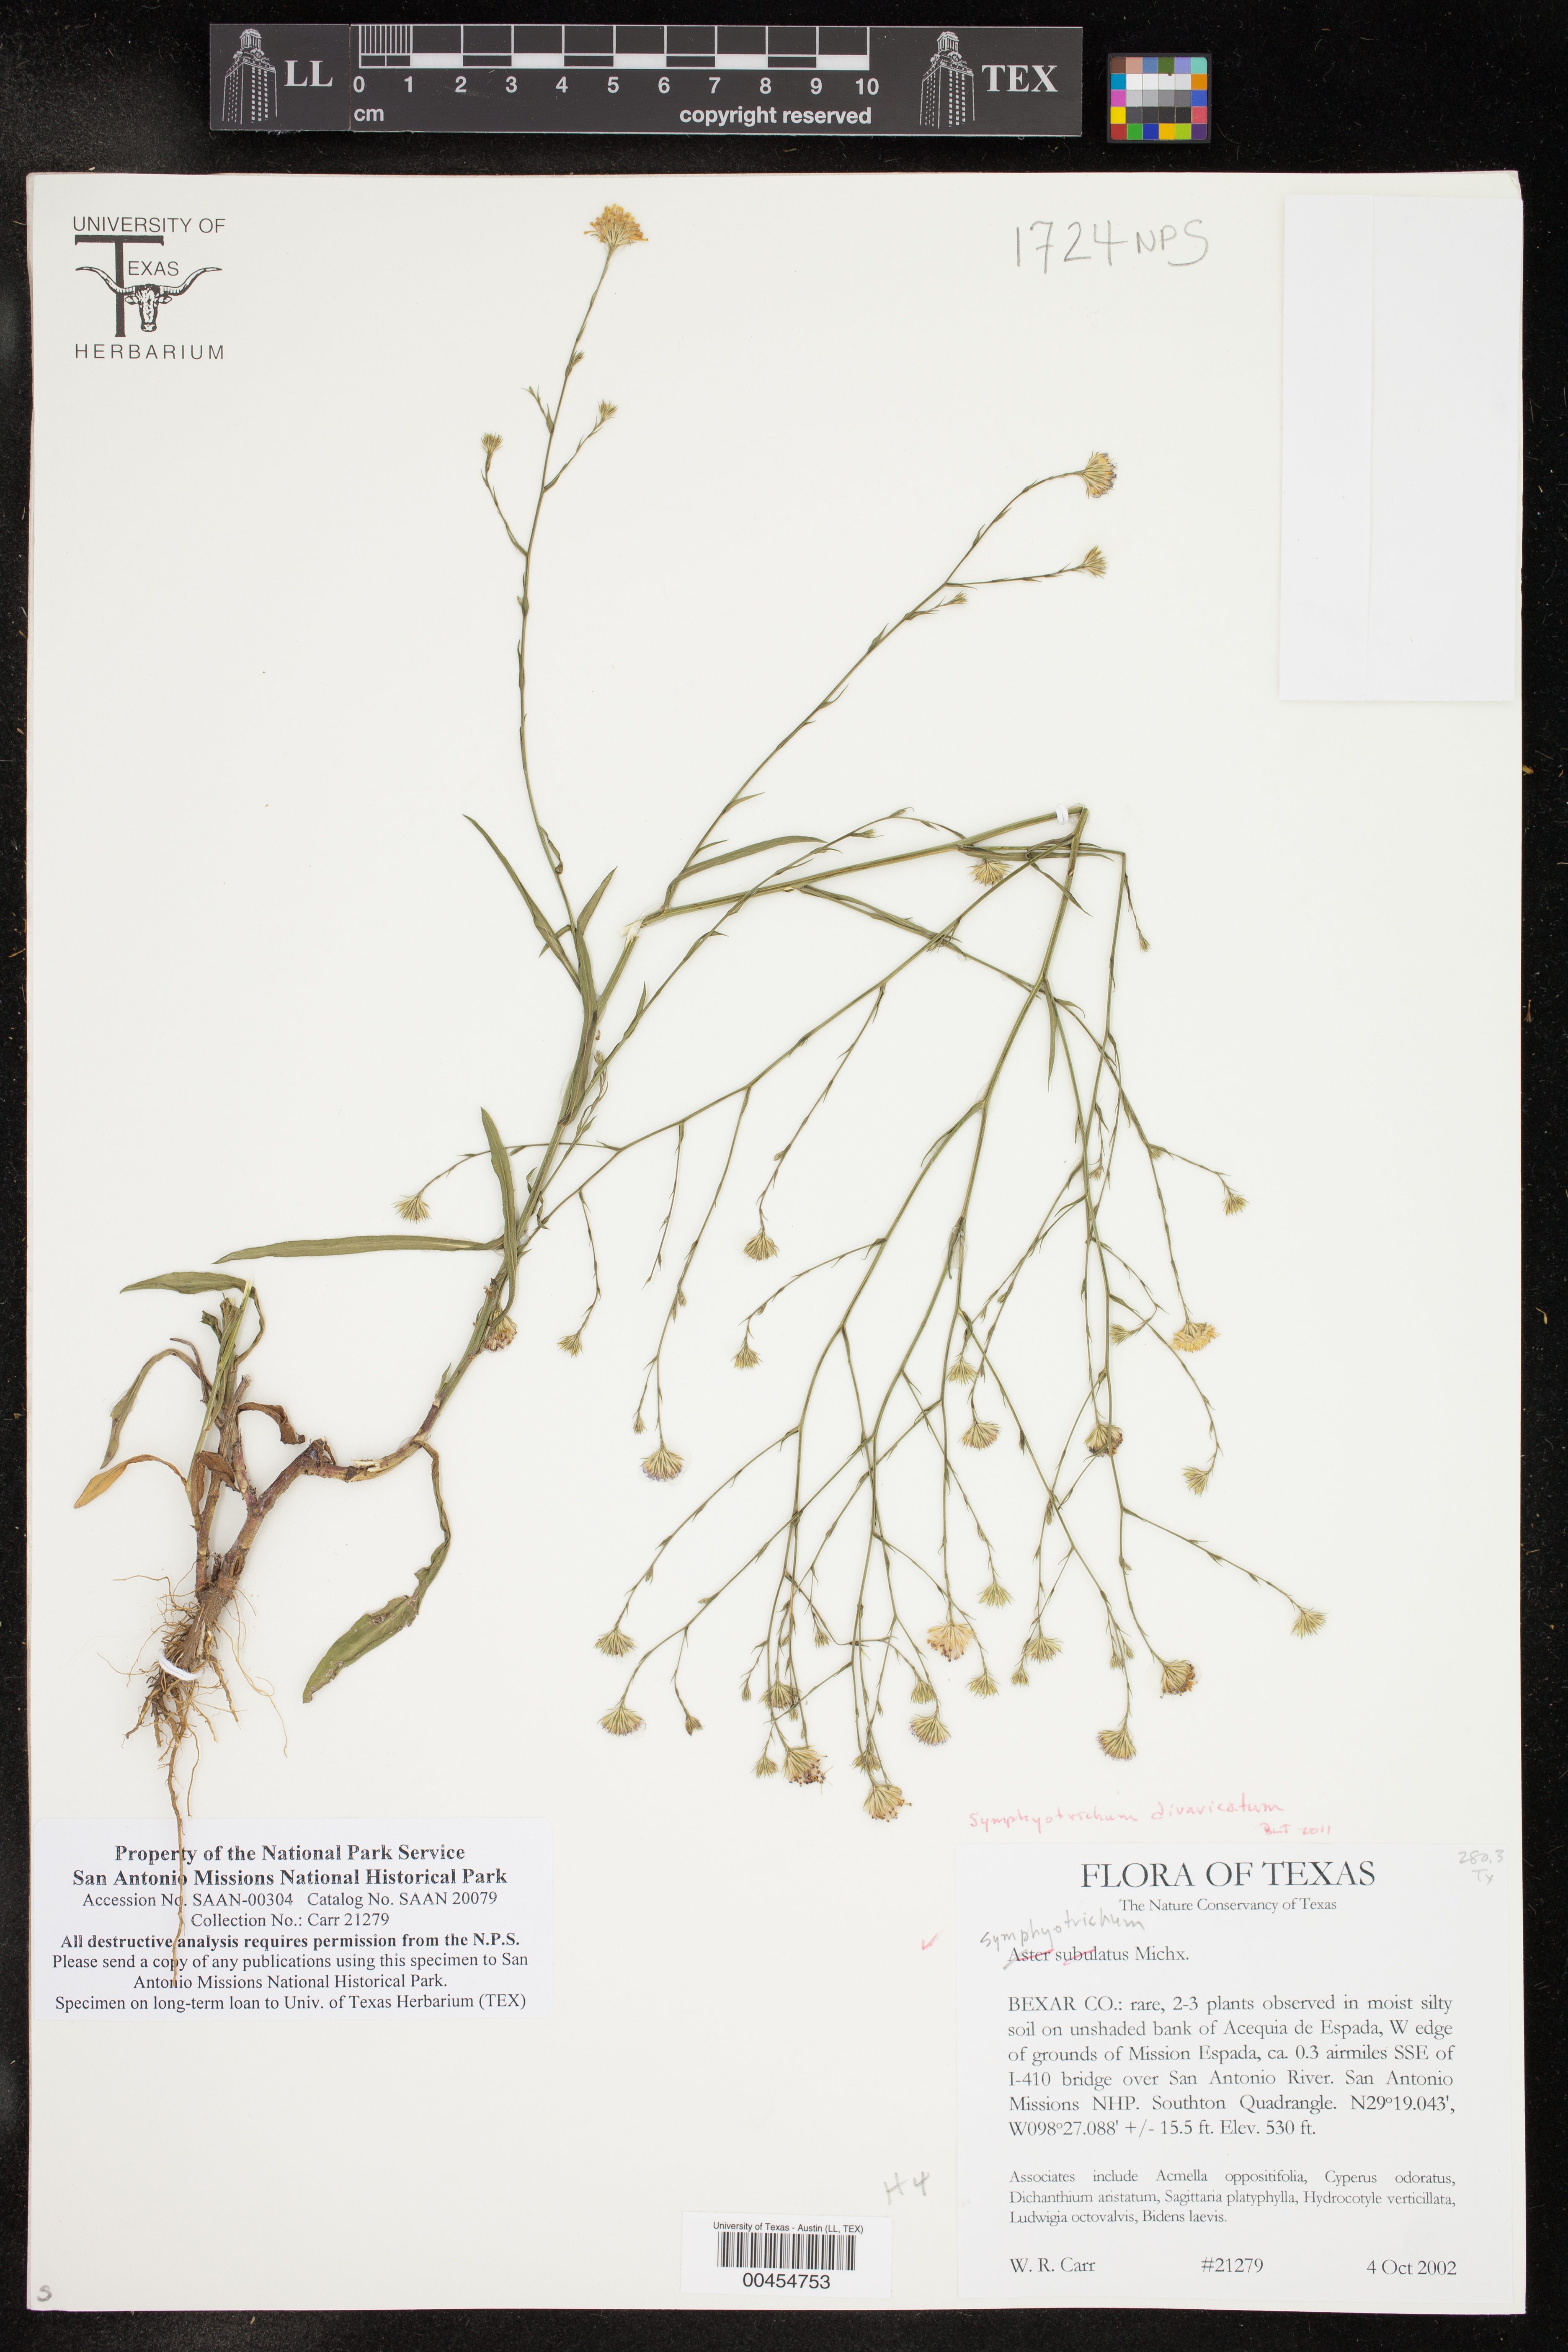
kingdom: Plantae
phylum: Tracheophyta
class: Magnoliopsida
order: Asterales
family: Asteraceae
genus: Symphyotrichum
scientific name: Symphyotrichum divaricatum
